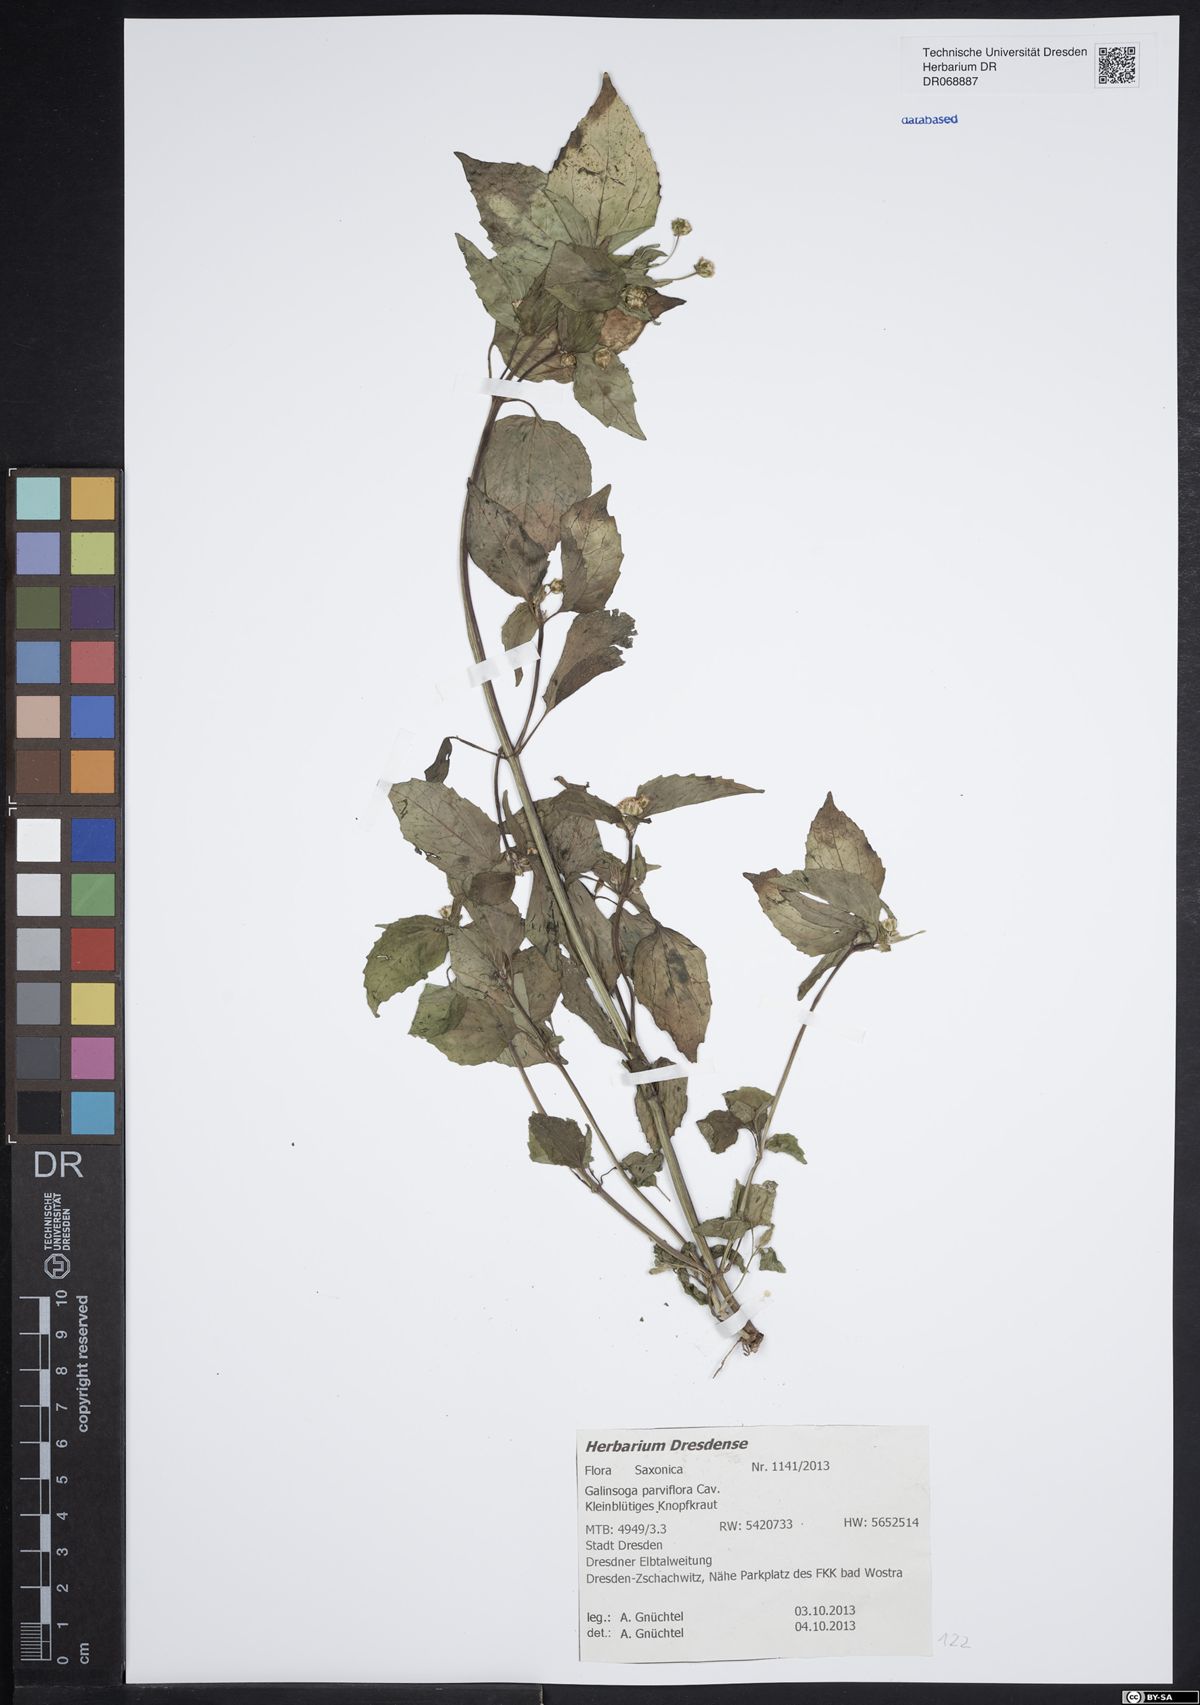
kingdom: Plantae
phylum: Tracheophyta
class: Magnoliopsida
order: Asterales
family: Asteraceae
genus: Galinsoga
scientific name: Galinsoga parviflora
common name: Gallant soldier
